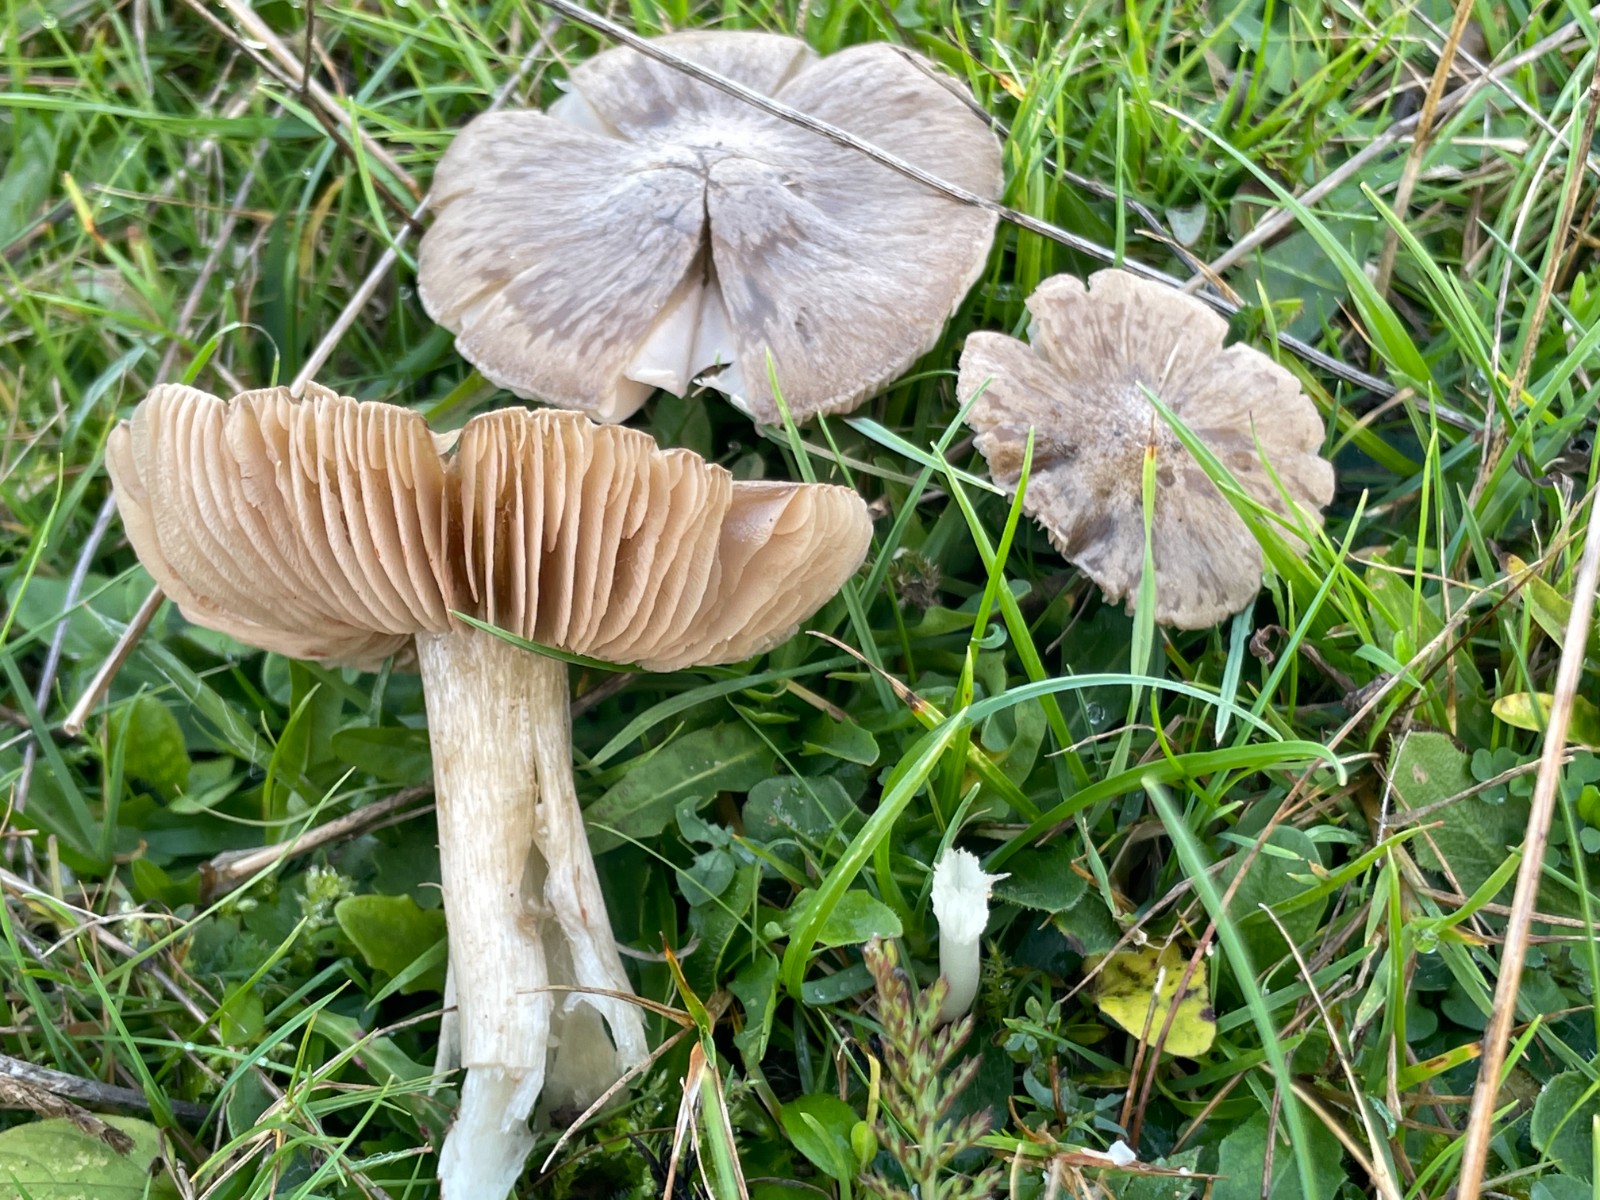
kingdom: Fungi
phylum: Basidiomycota
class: Agaricomycetes
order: Agaricales
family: Entolomataceae
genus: Entoloma
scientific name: Entoloma prunuloides
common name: mel-rødblad
